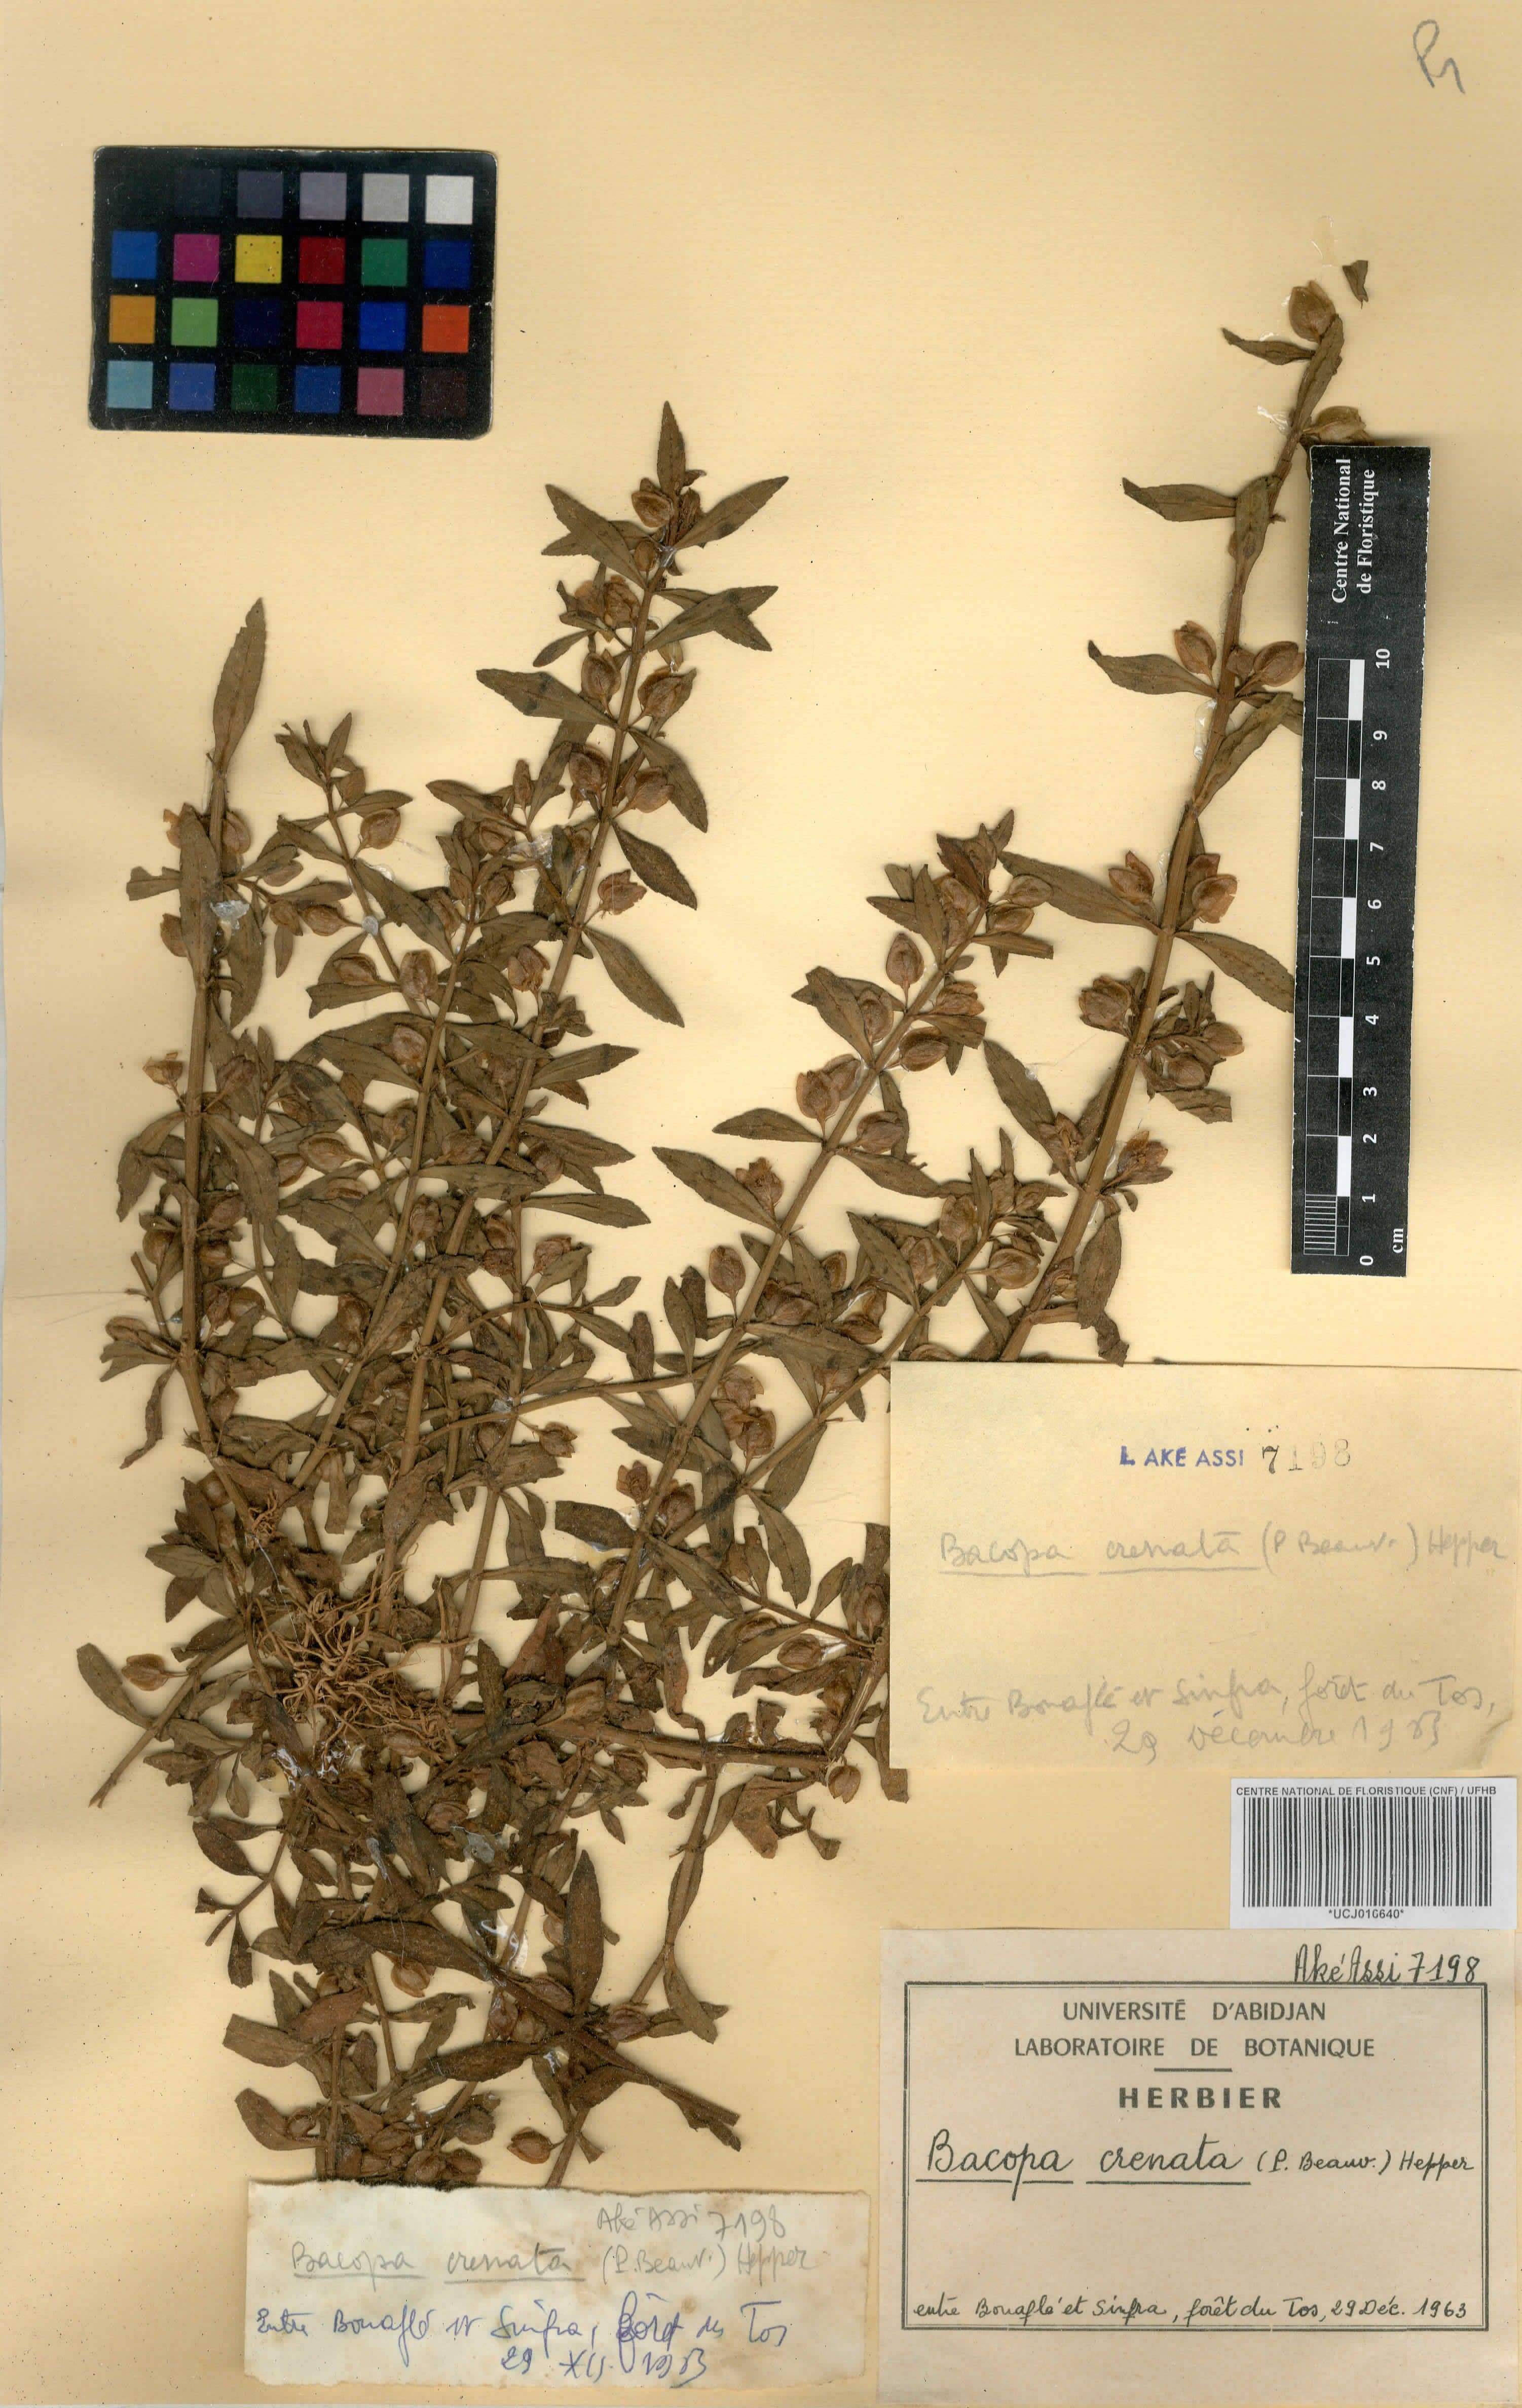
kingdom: Plantae
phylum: Tracheophyta
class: Magnoliopsida
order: Lamiales
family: Plantaginaceae
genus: Bacopa
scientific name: Bacopa crenata
